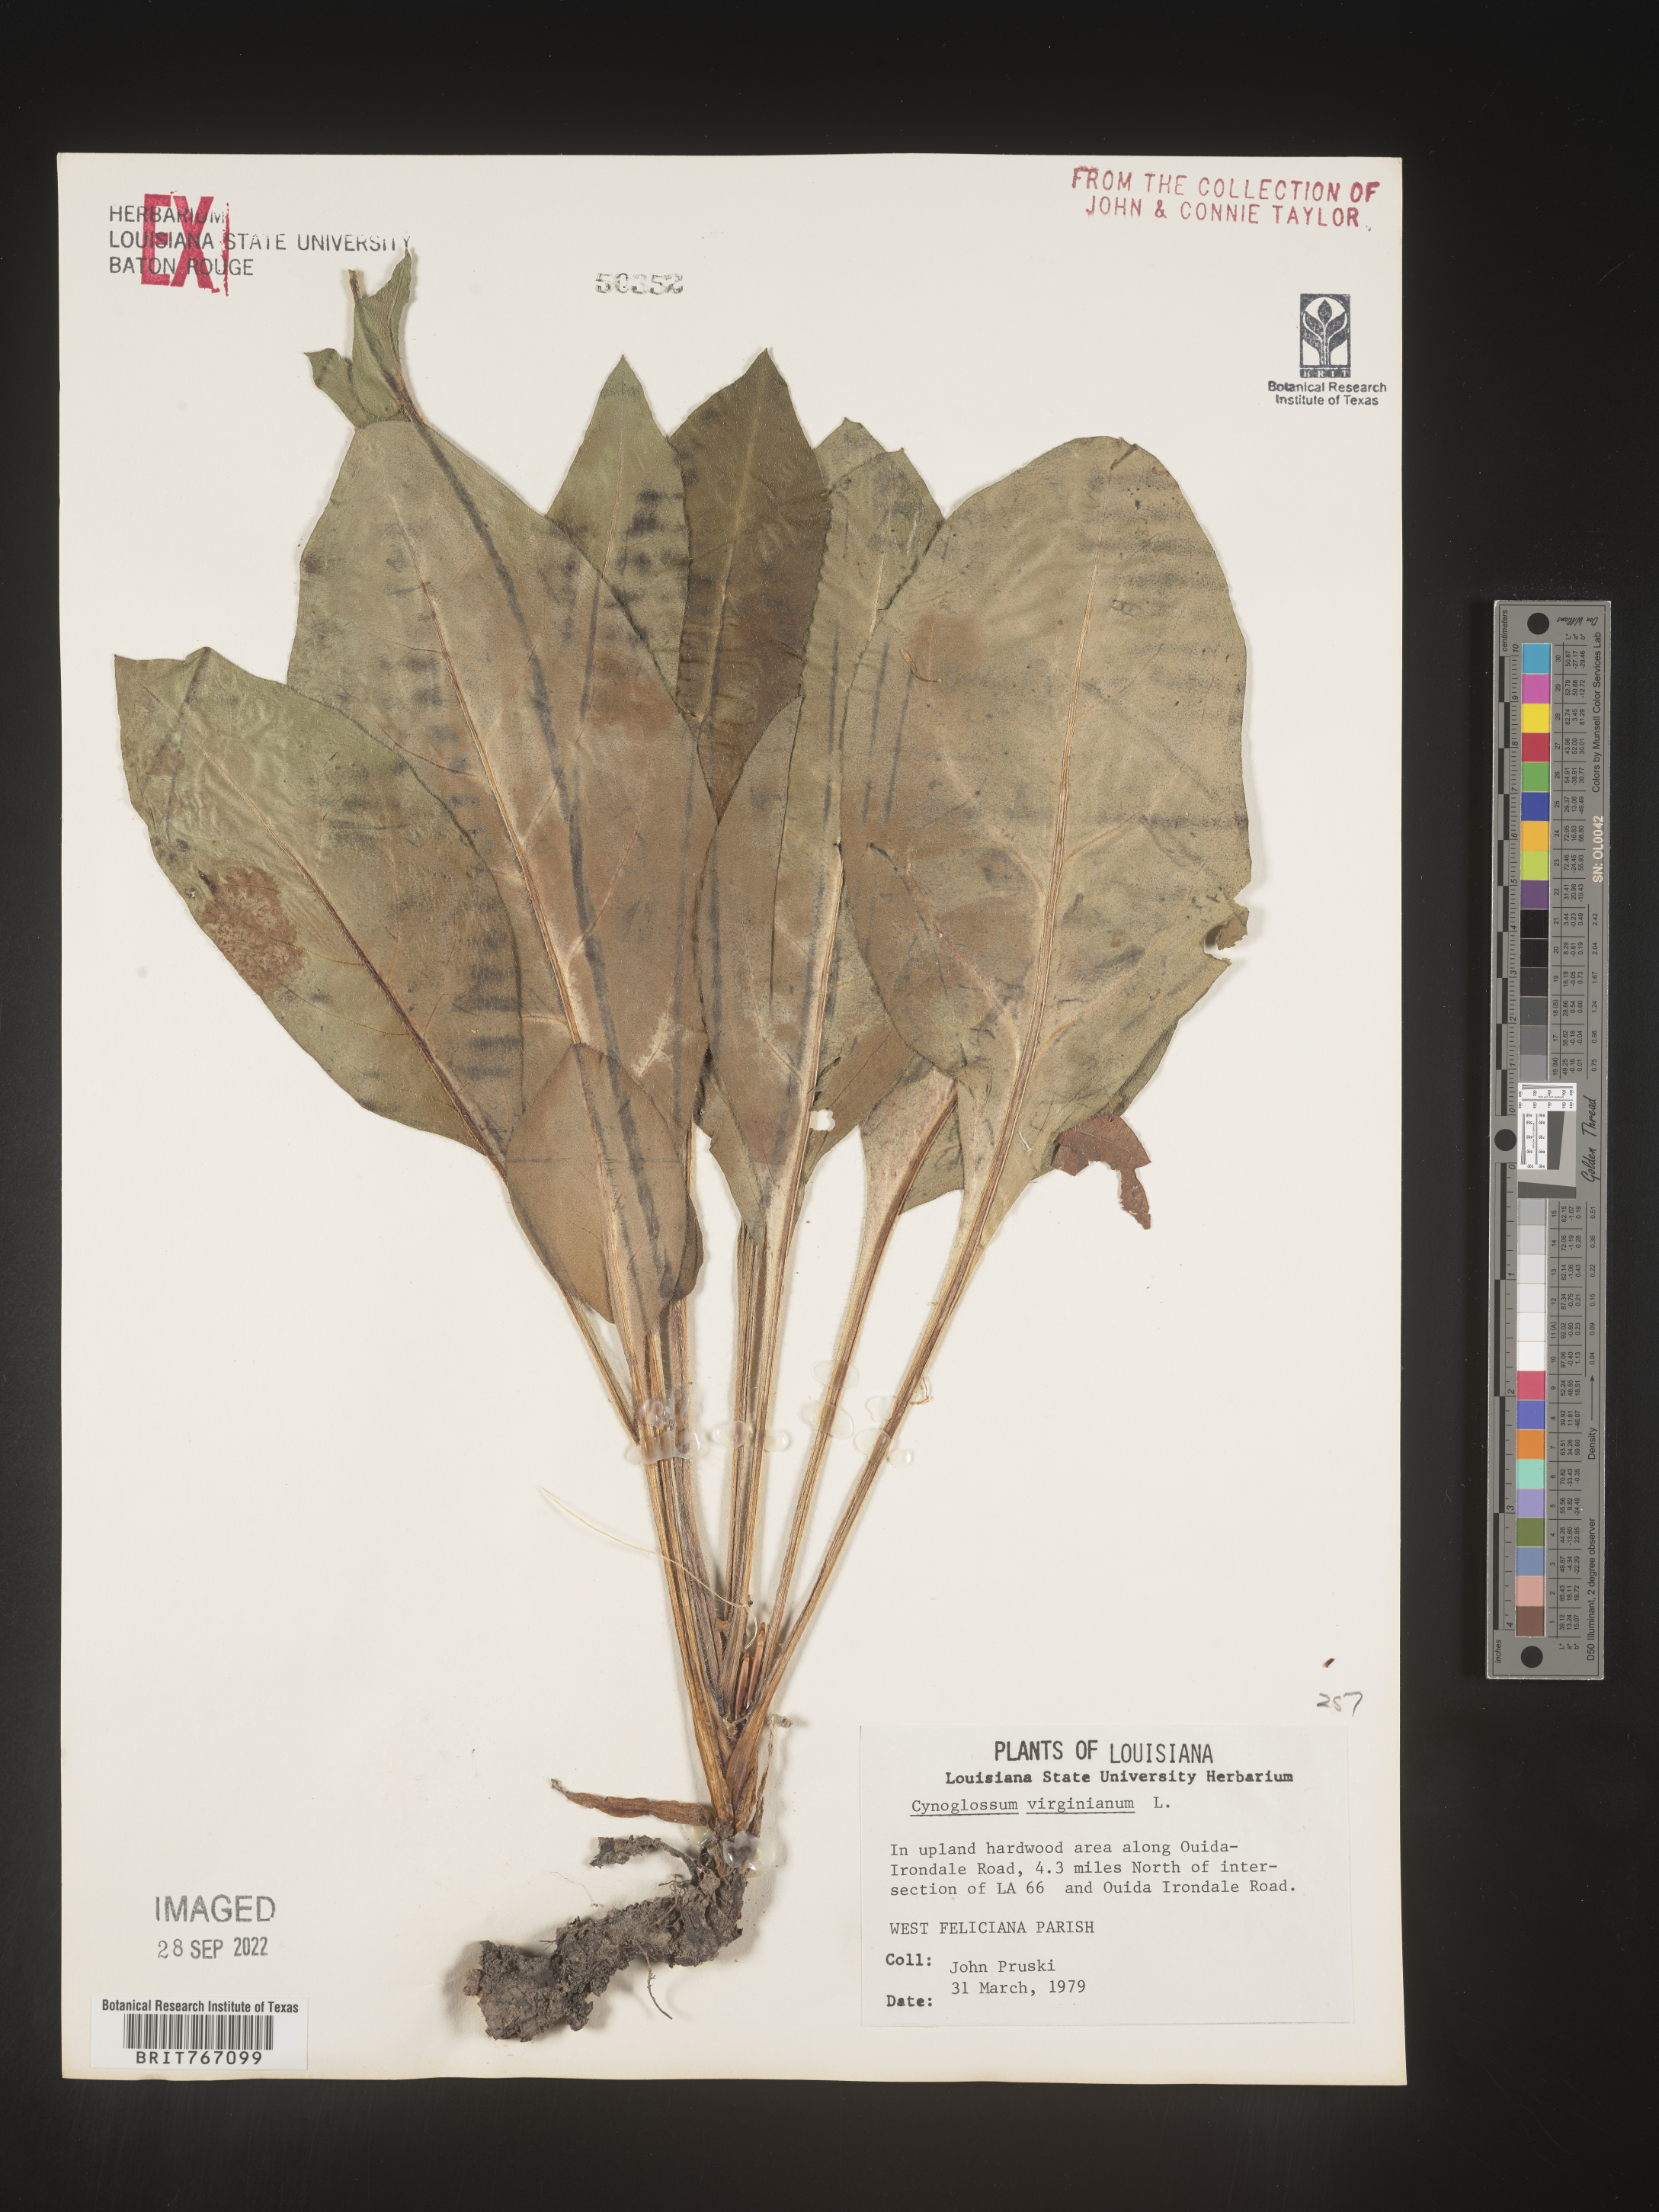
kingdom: Plantae
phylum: Tracheophyta
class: Magnoliopsida
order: Boraginales
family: Boraginaceae
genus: Andersonglossum
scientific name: Andersonglossum virginianum
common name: Wild comfrey
